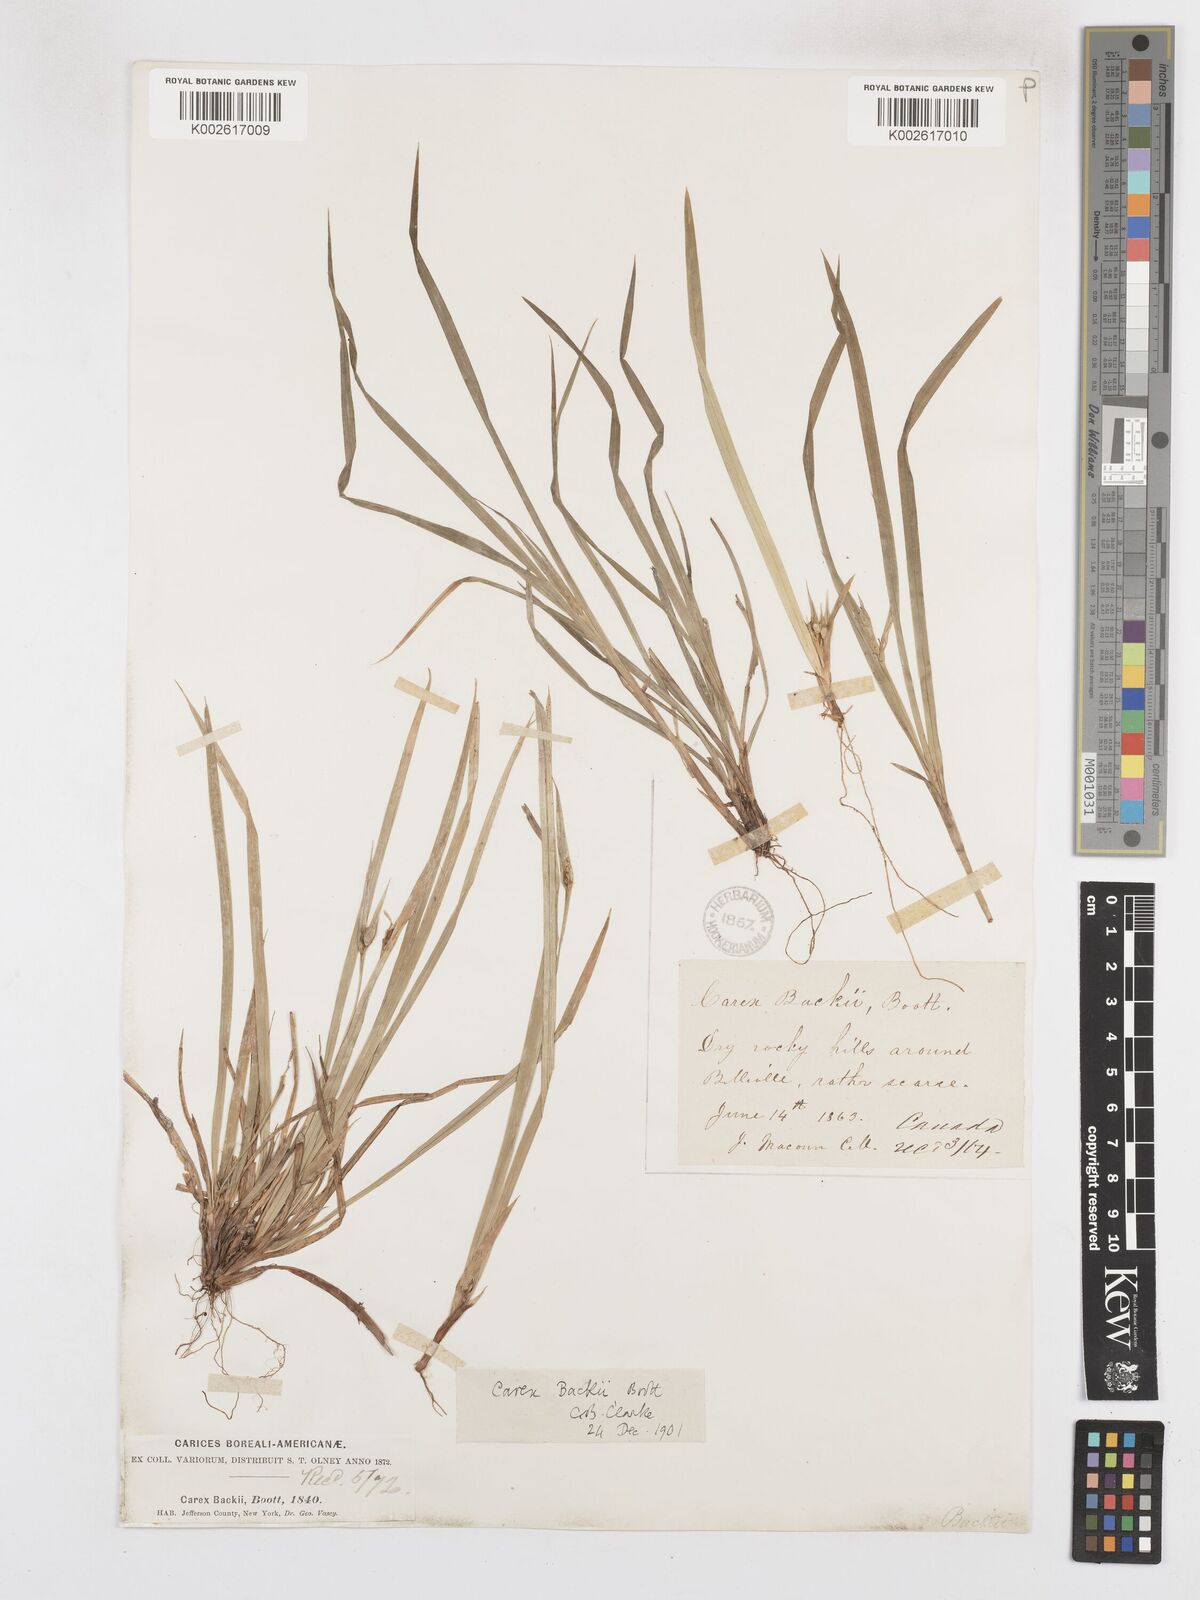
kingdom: Plantae
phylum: Tracheophyta
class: Liliopsida
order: Poales
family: Cyperaceae
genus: Carex
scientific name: Carex backii
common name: Back's sedge
